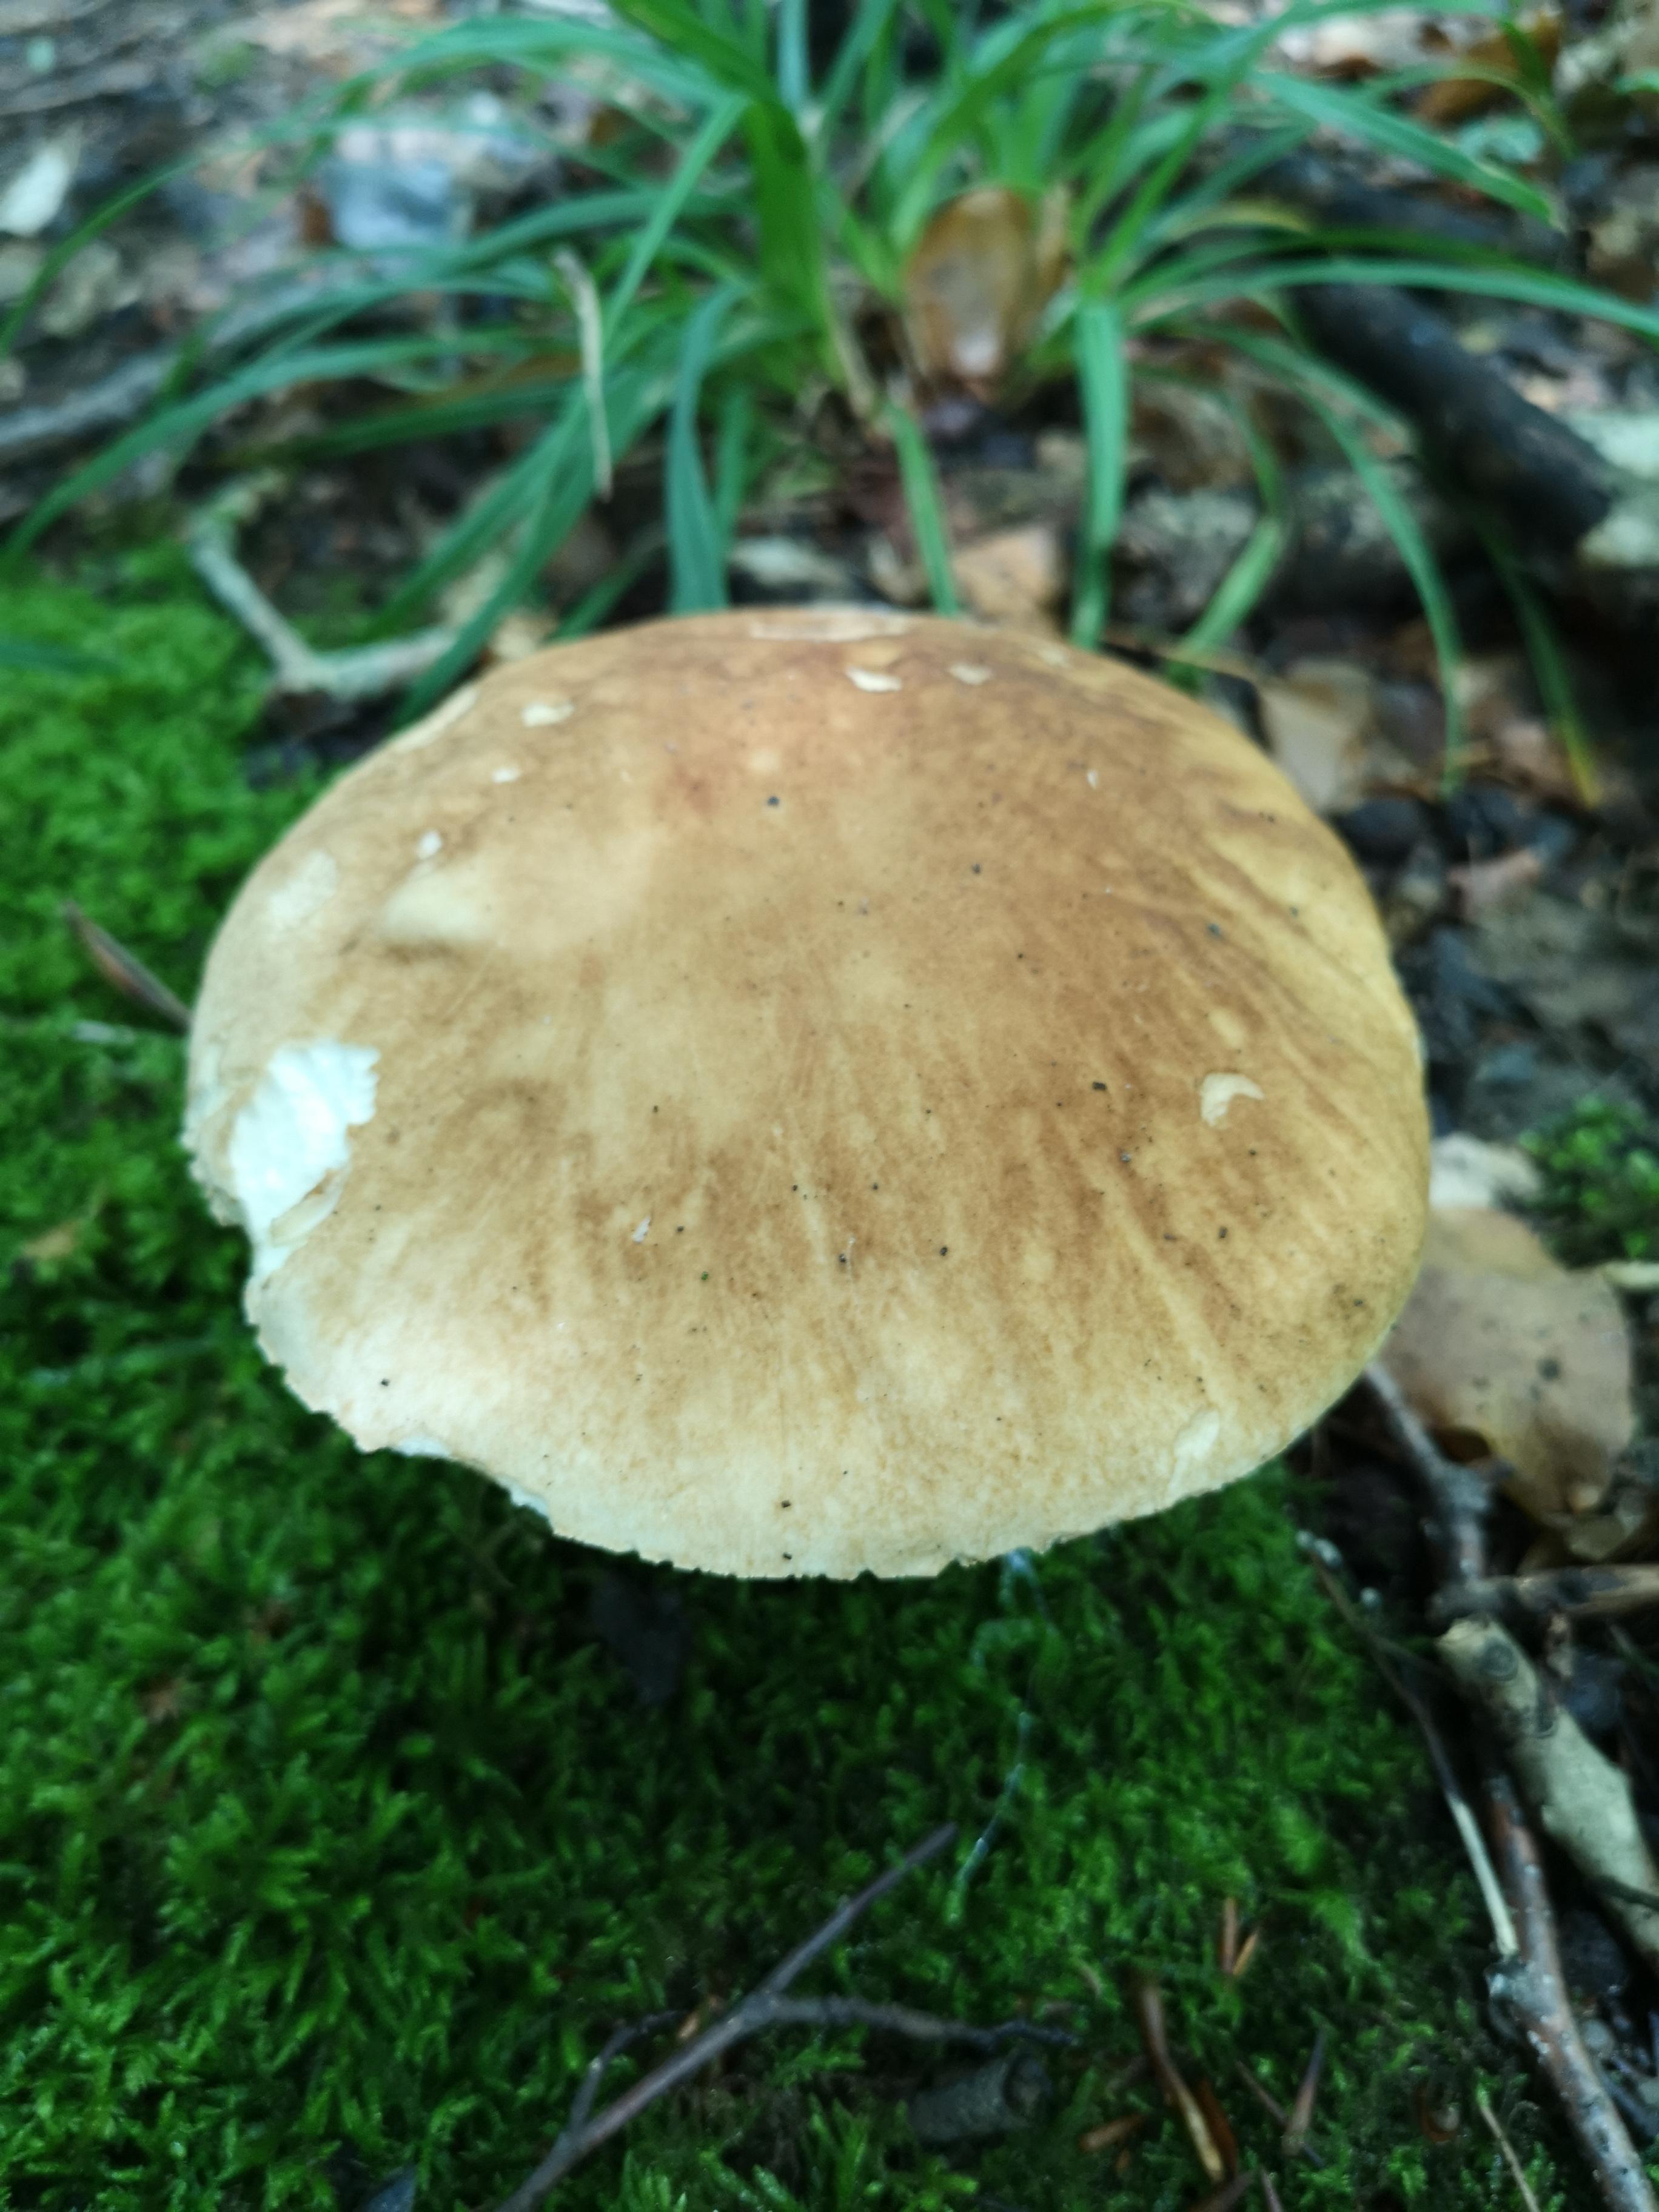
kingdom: Fungi
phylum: Basidiomycota
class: Agaricomycetes
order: Boletales
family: Boletaceae
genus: Boletus
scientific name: Boletus reticulatus
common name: sommer-rørhat
